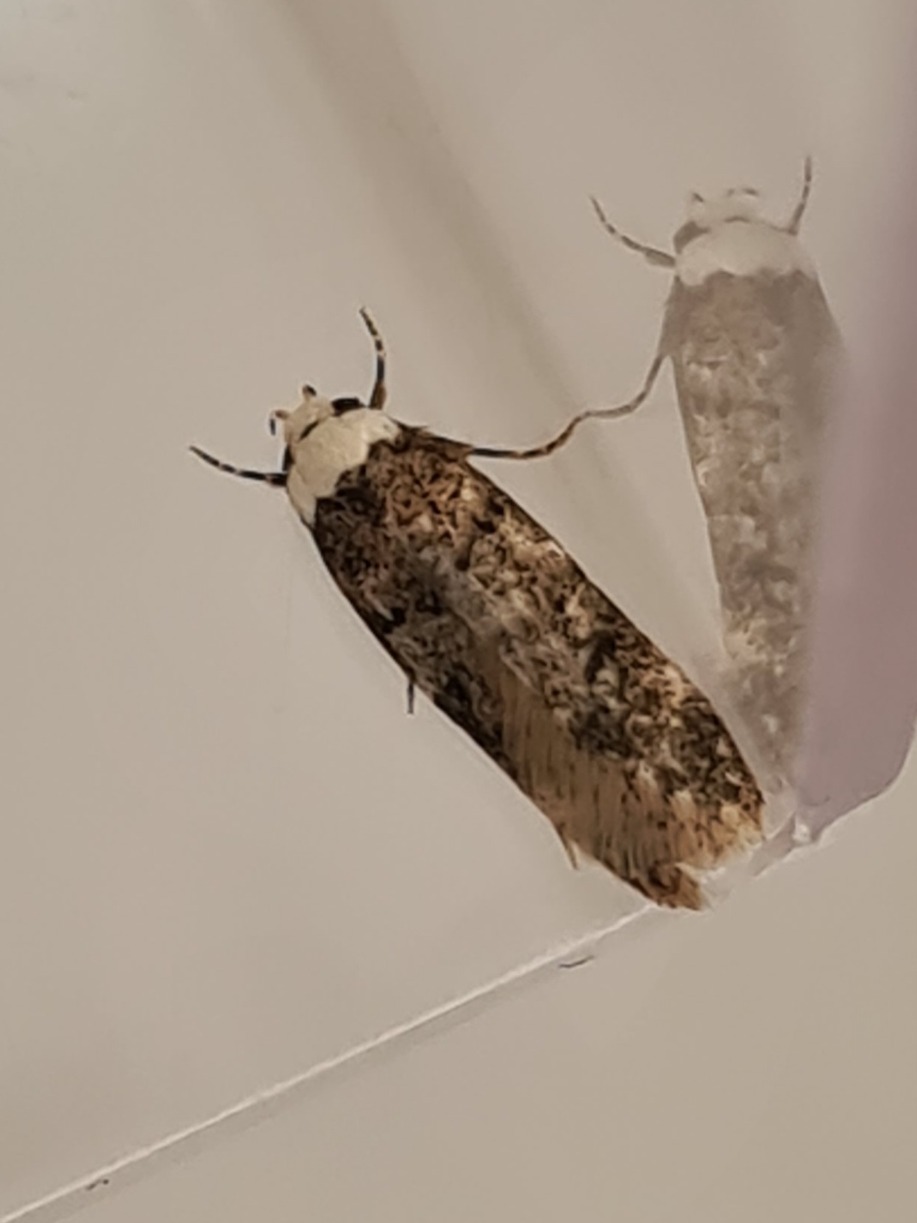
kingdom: Animalia
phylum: Arthropoda
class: Insecta
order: Lepidoptera
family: Oecophoridae
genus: Endrosis
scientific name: Endrosis sarcitrella
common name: Klistermøl
